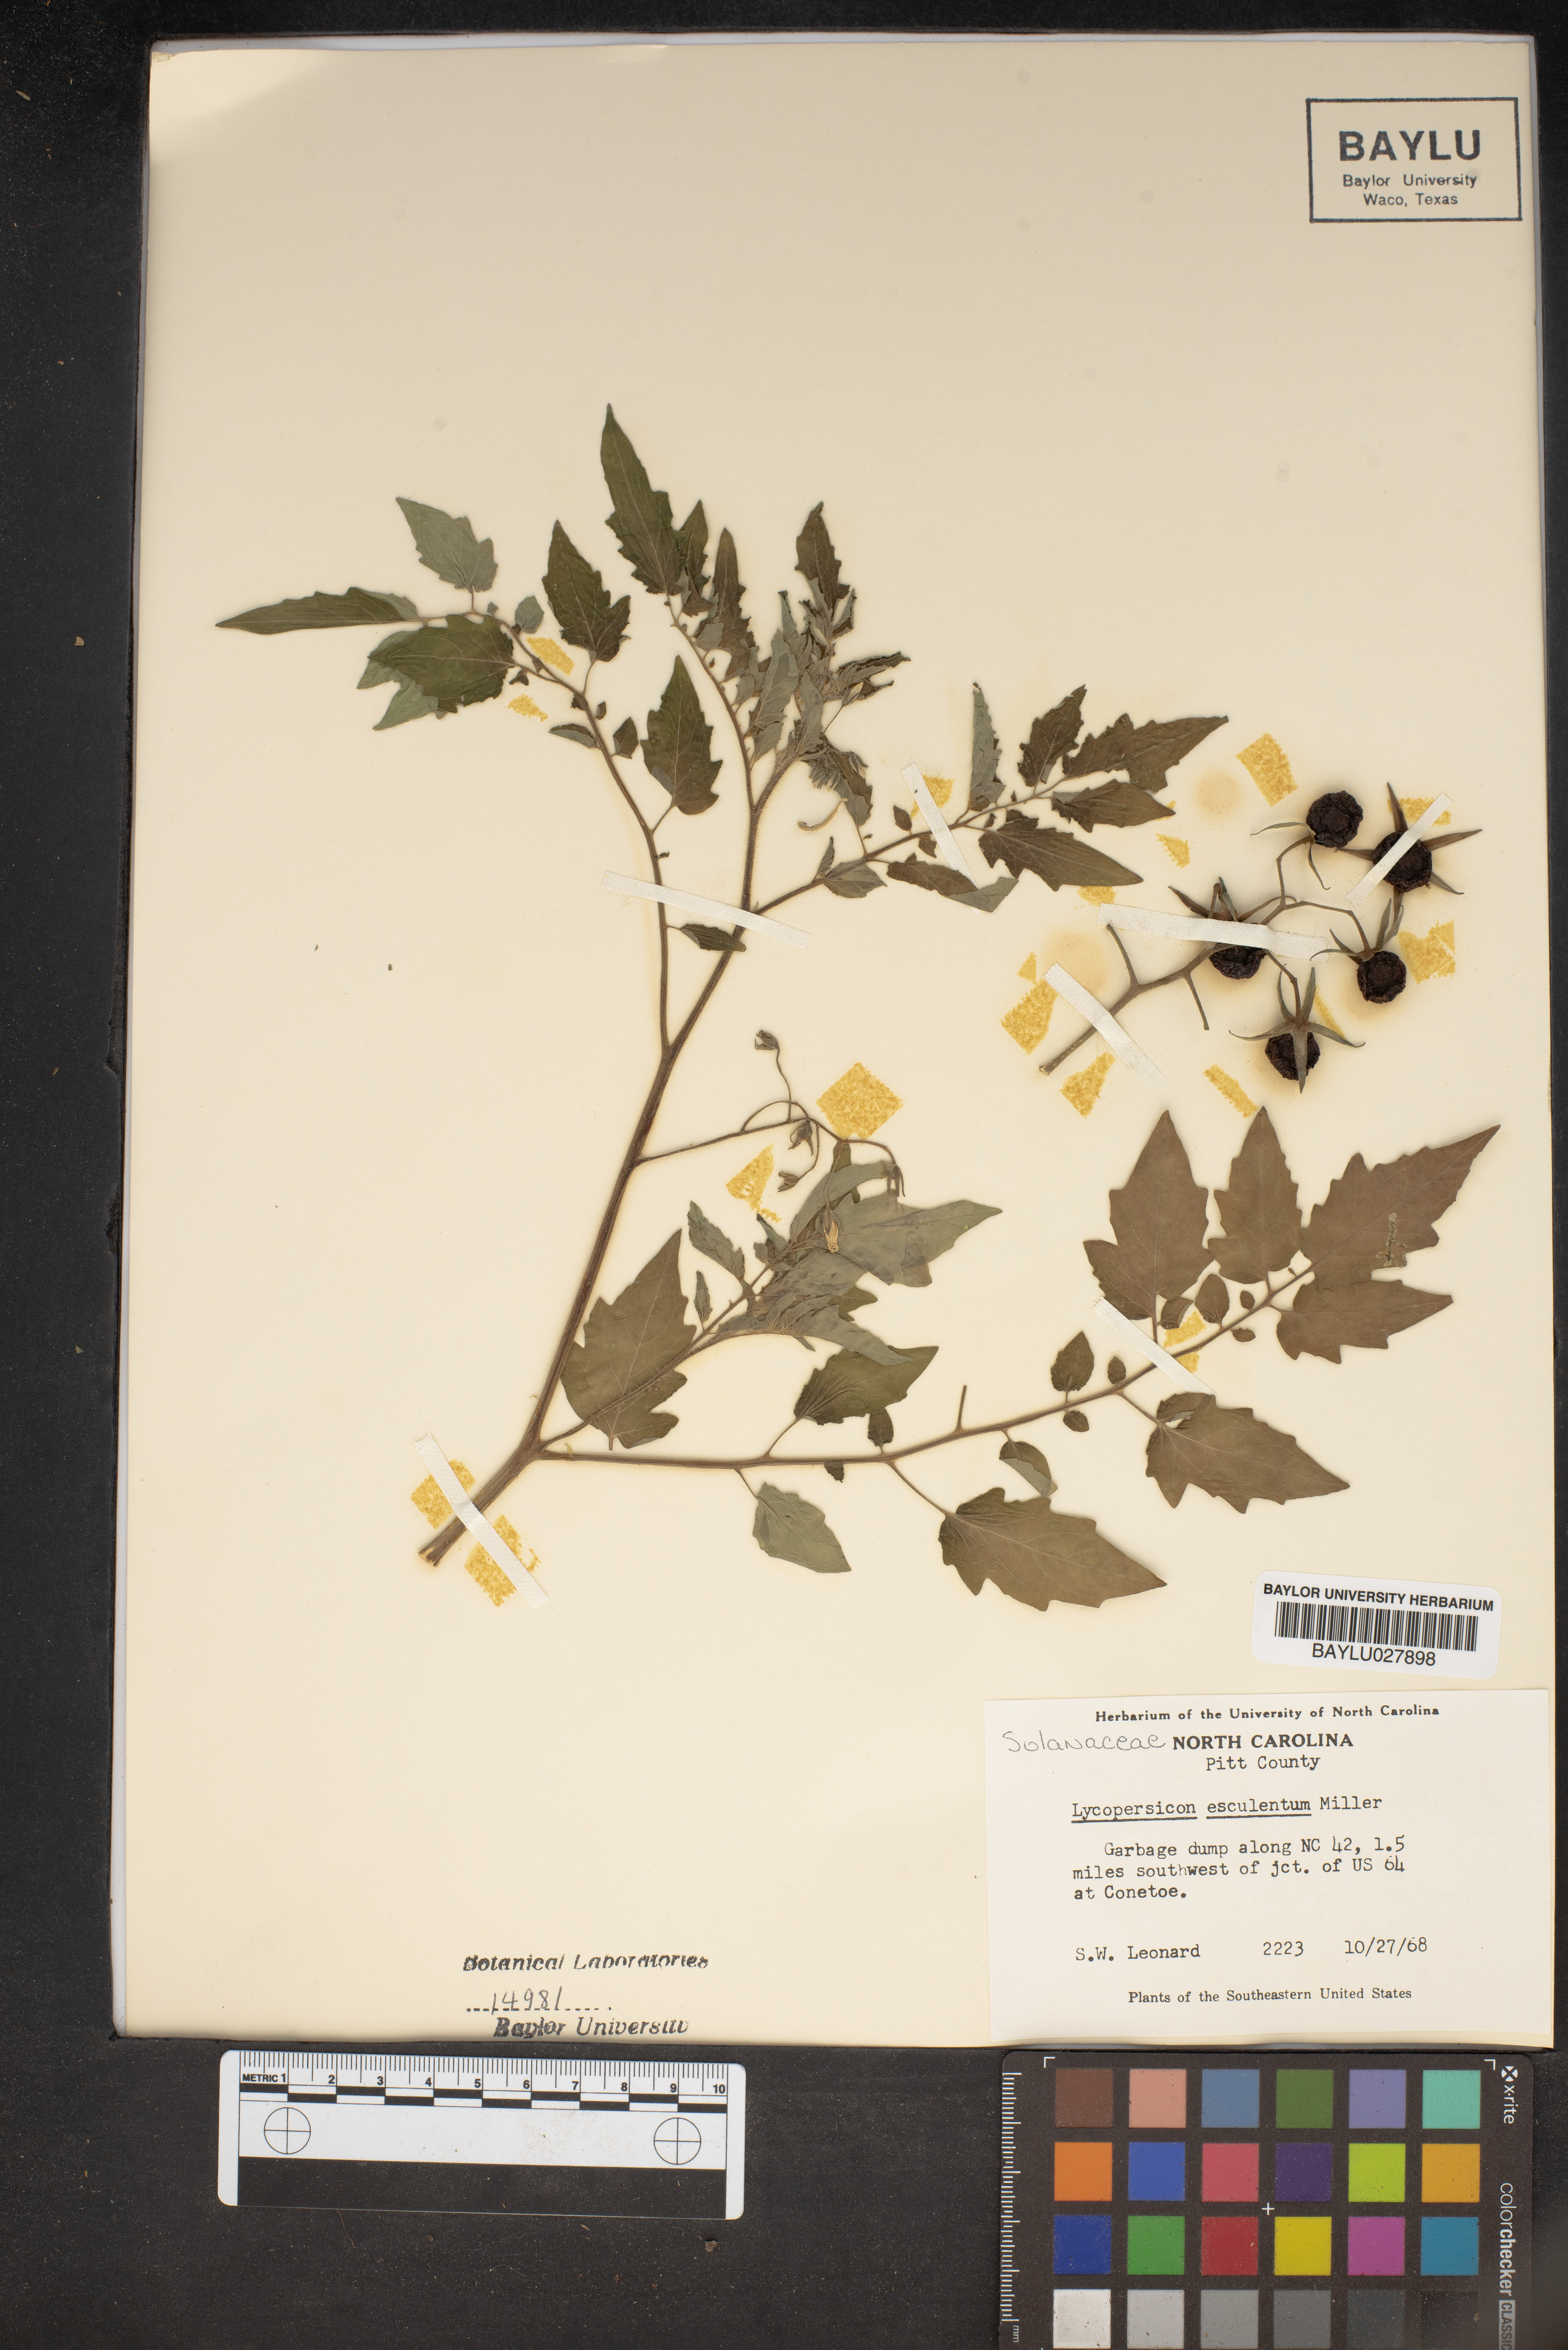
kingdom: Plantae
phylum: Tracheophyta
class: Magnoliopsida
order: Solanales
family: Solanaceae
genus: Solanum
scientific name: Solanum
